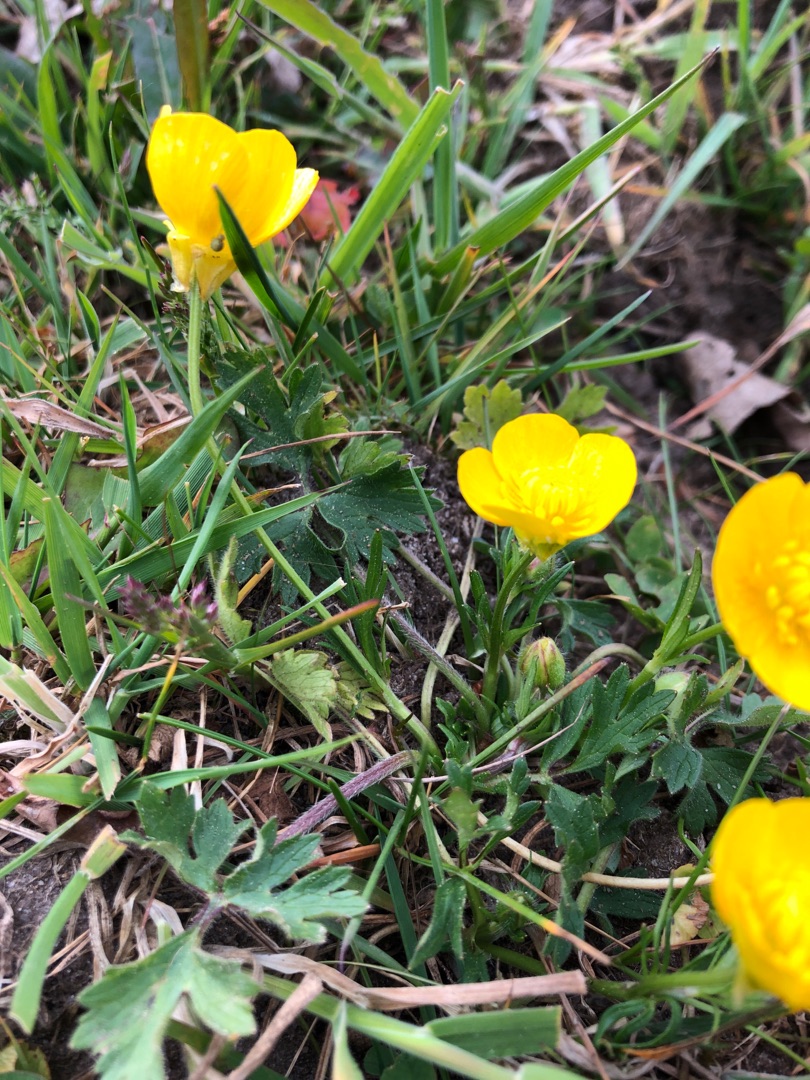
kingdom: Plantae
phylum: Tracheophyta
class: Magnoliopsida
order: Ranunculales
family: Ranunculaceae
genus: Ranunculus
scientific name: Ranunculus bulbosus
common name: Knold-ranunkel
